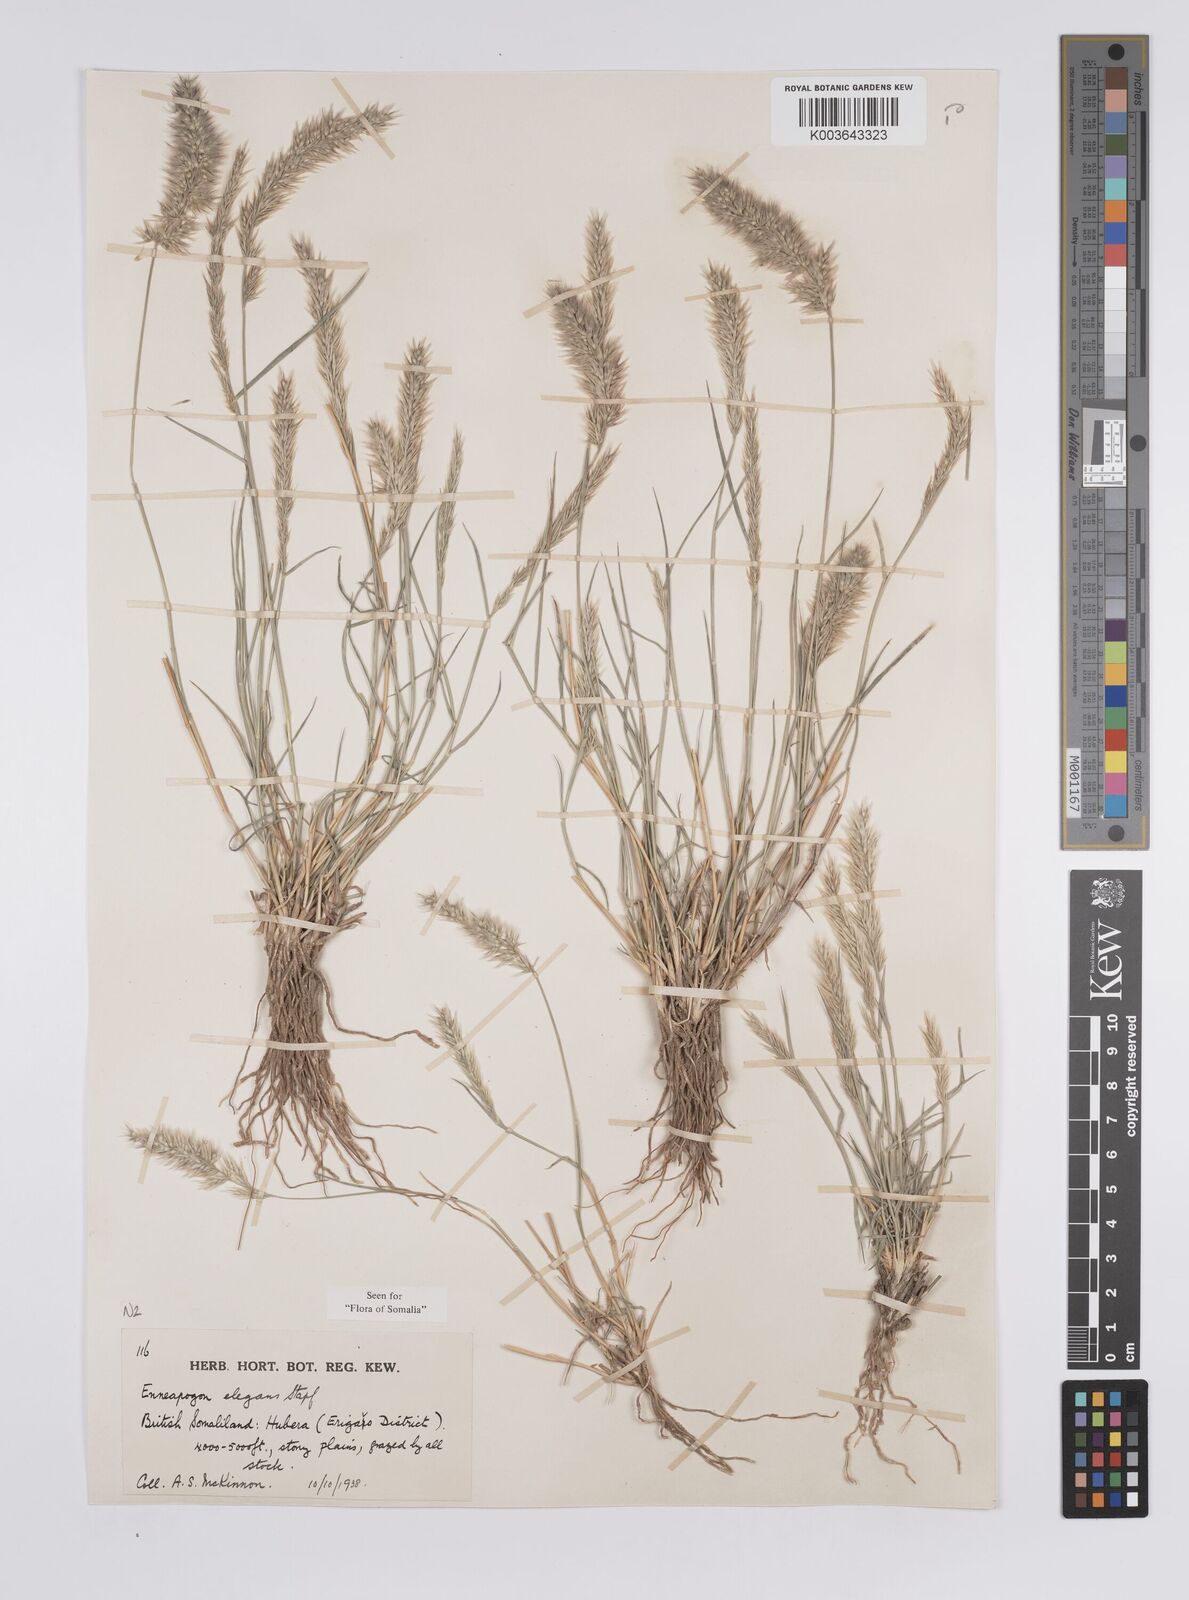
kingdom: Plantae
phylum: Tracheophyta
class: Liliopsida
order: Poales
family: Poaceae
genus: Enneapogon
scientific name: Enneapogon persicus
